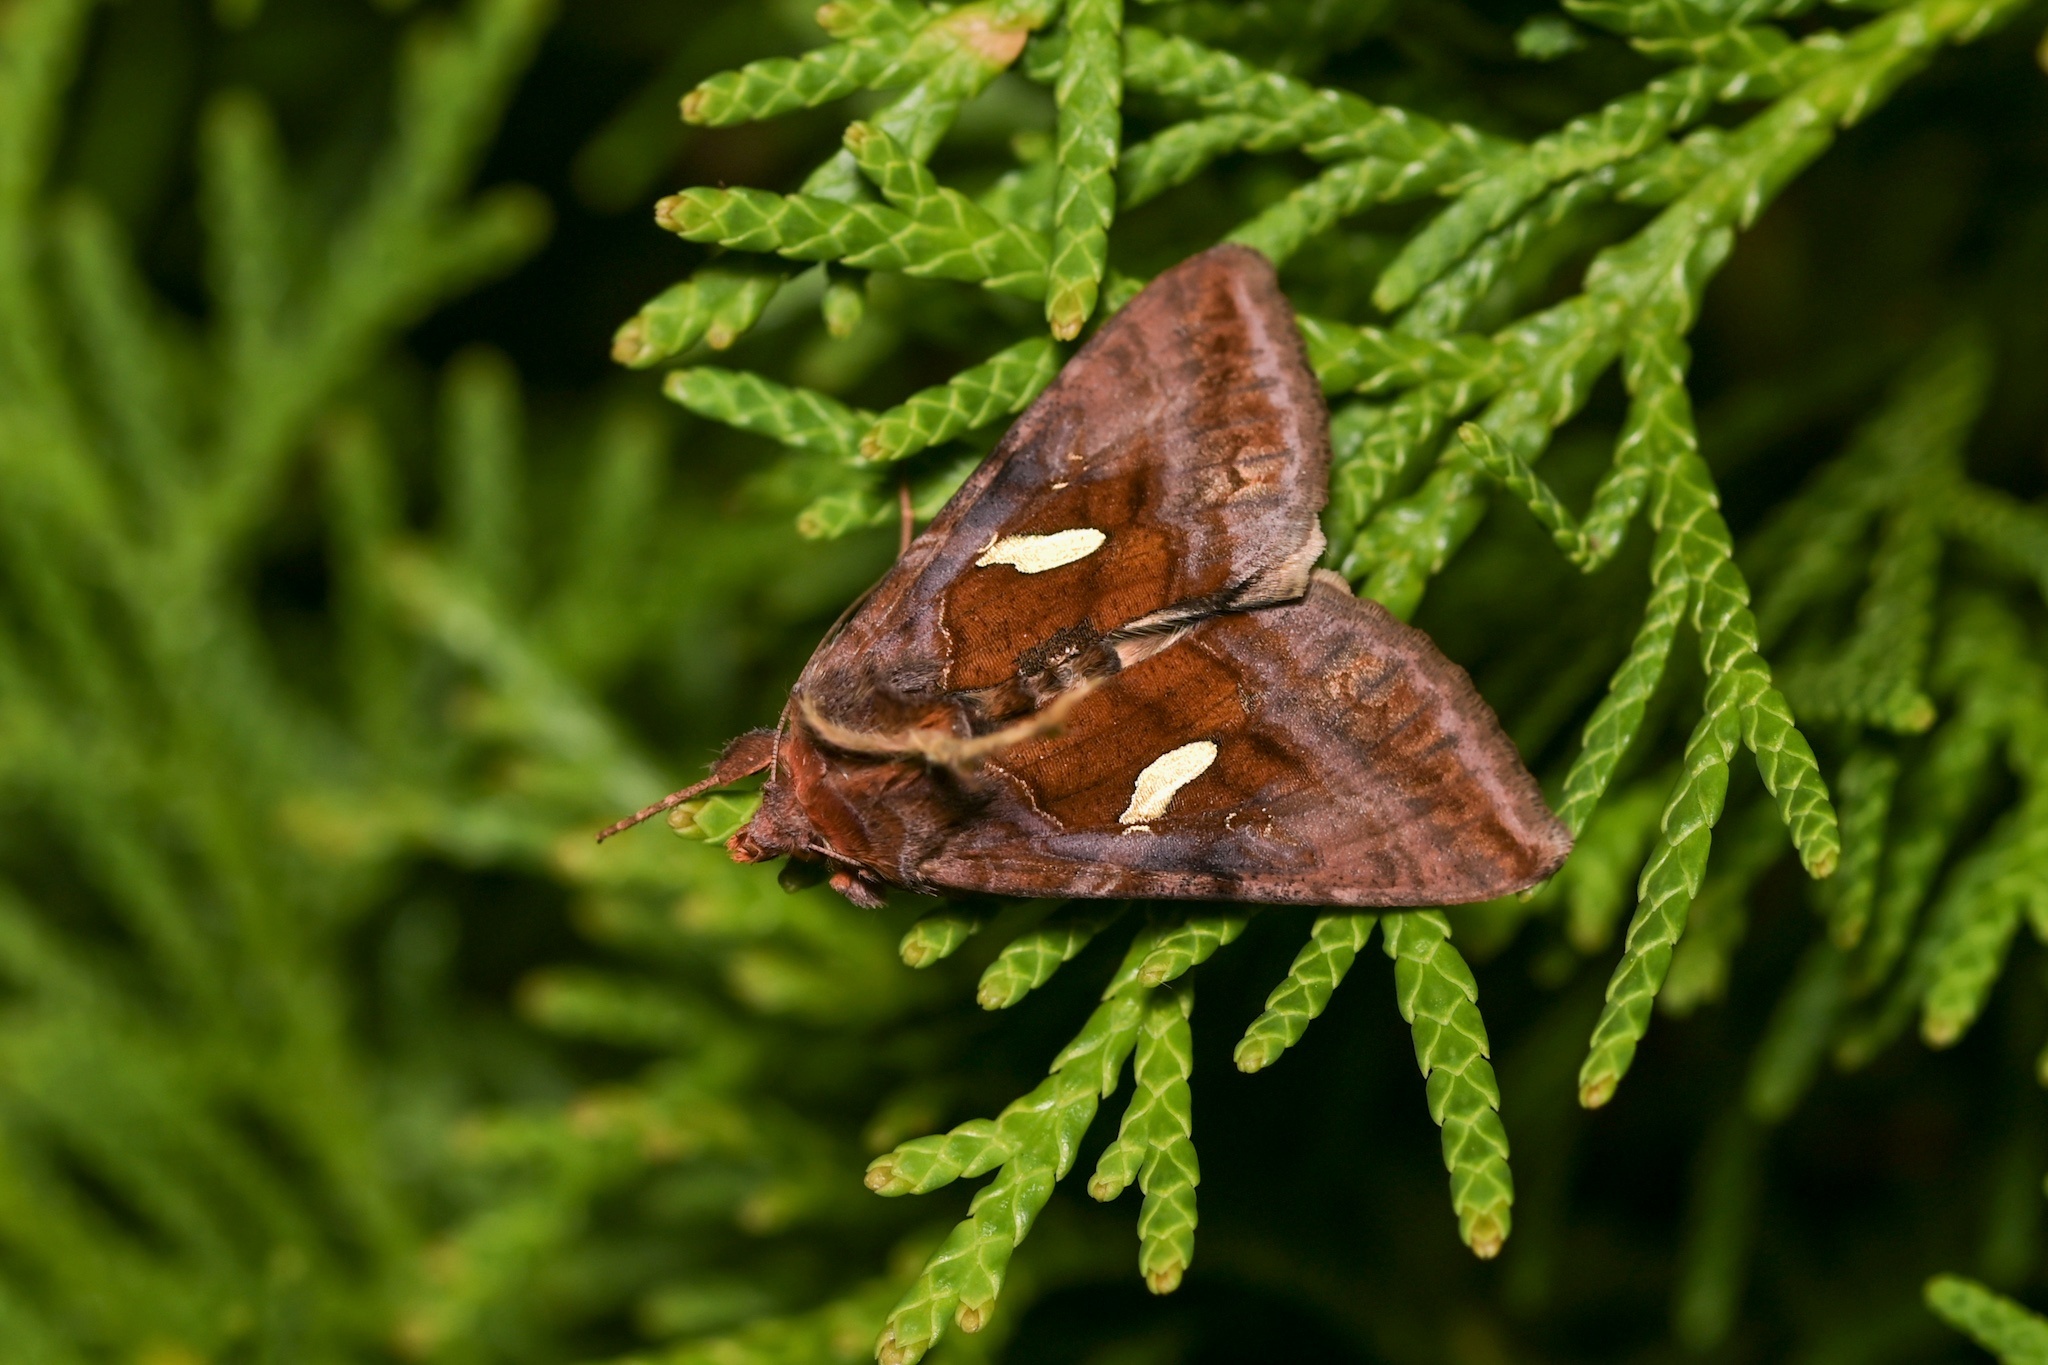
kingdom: Animalia
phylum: Arthropoda
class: Insecta
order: Lepidoptera
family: Noctuidae
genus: Autographa
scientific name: Autographa excelsa
